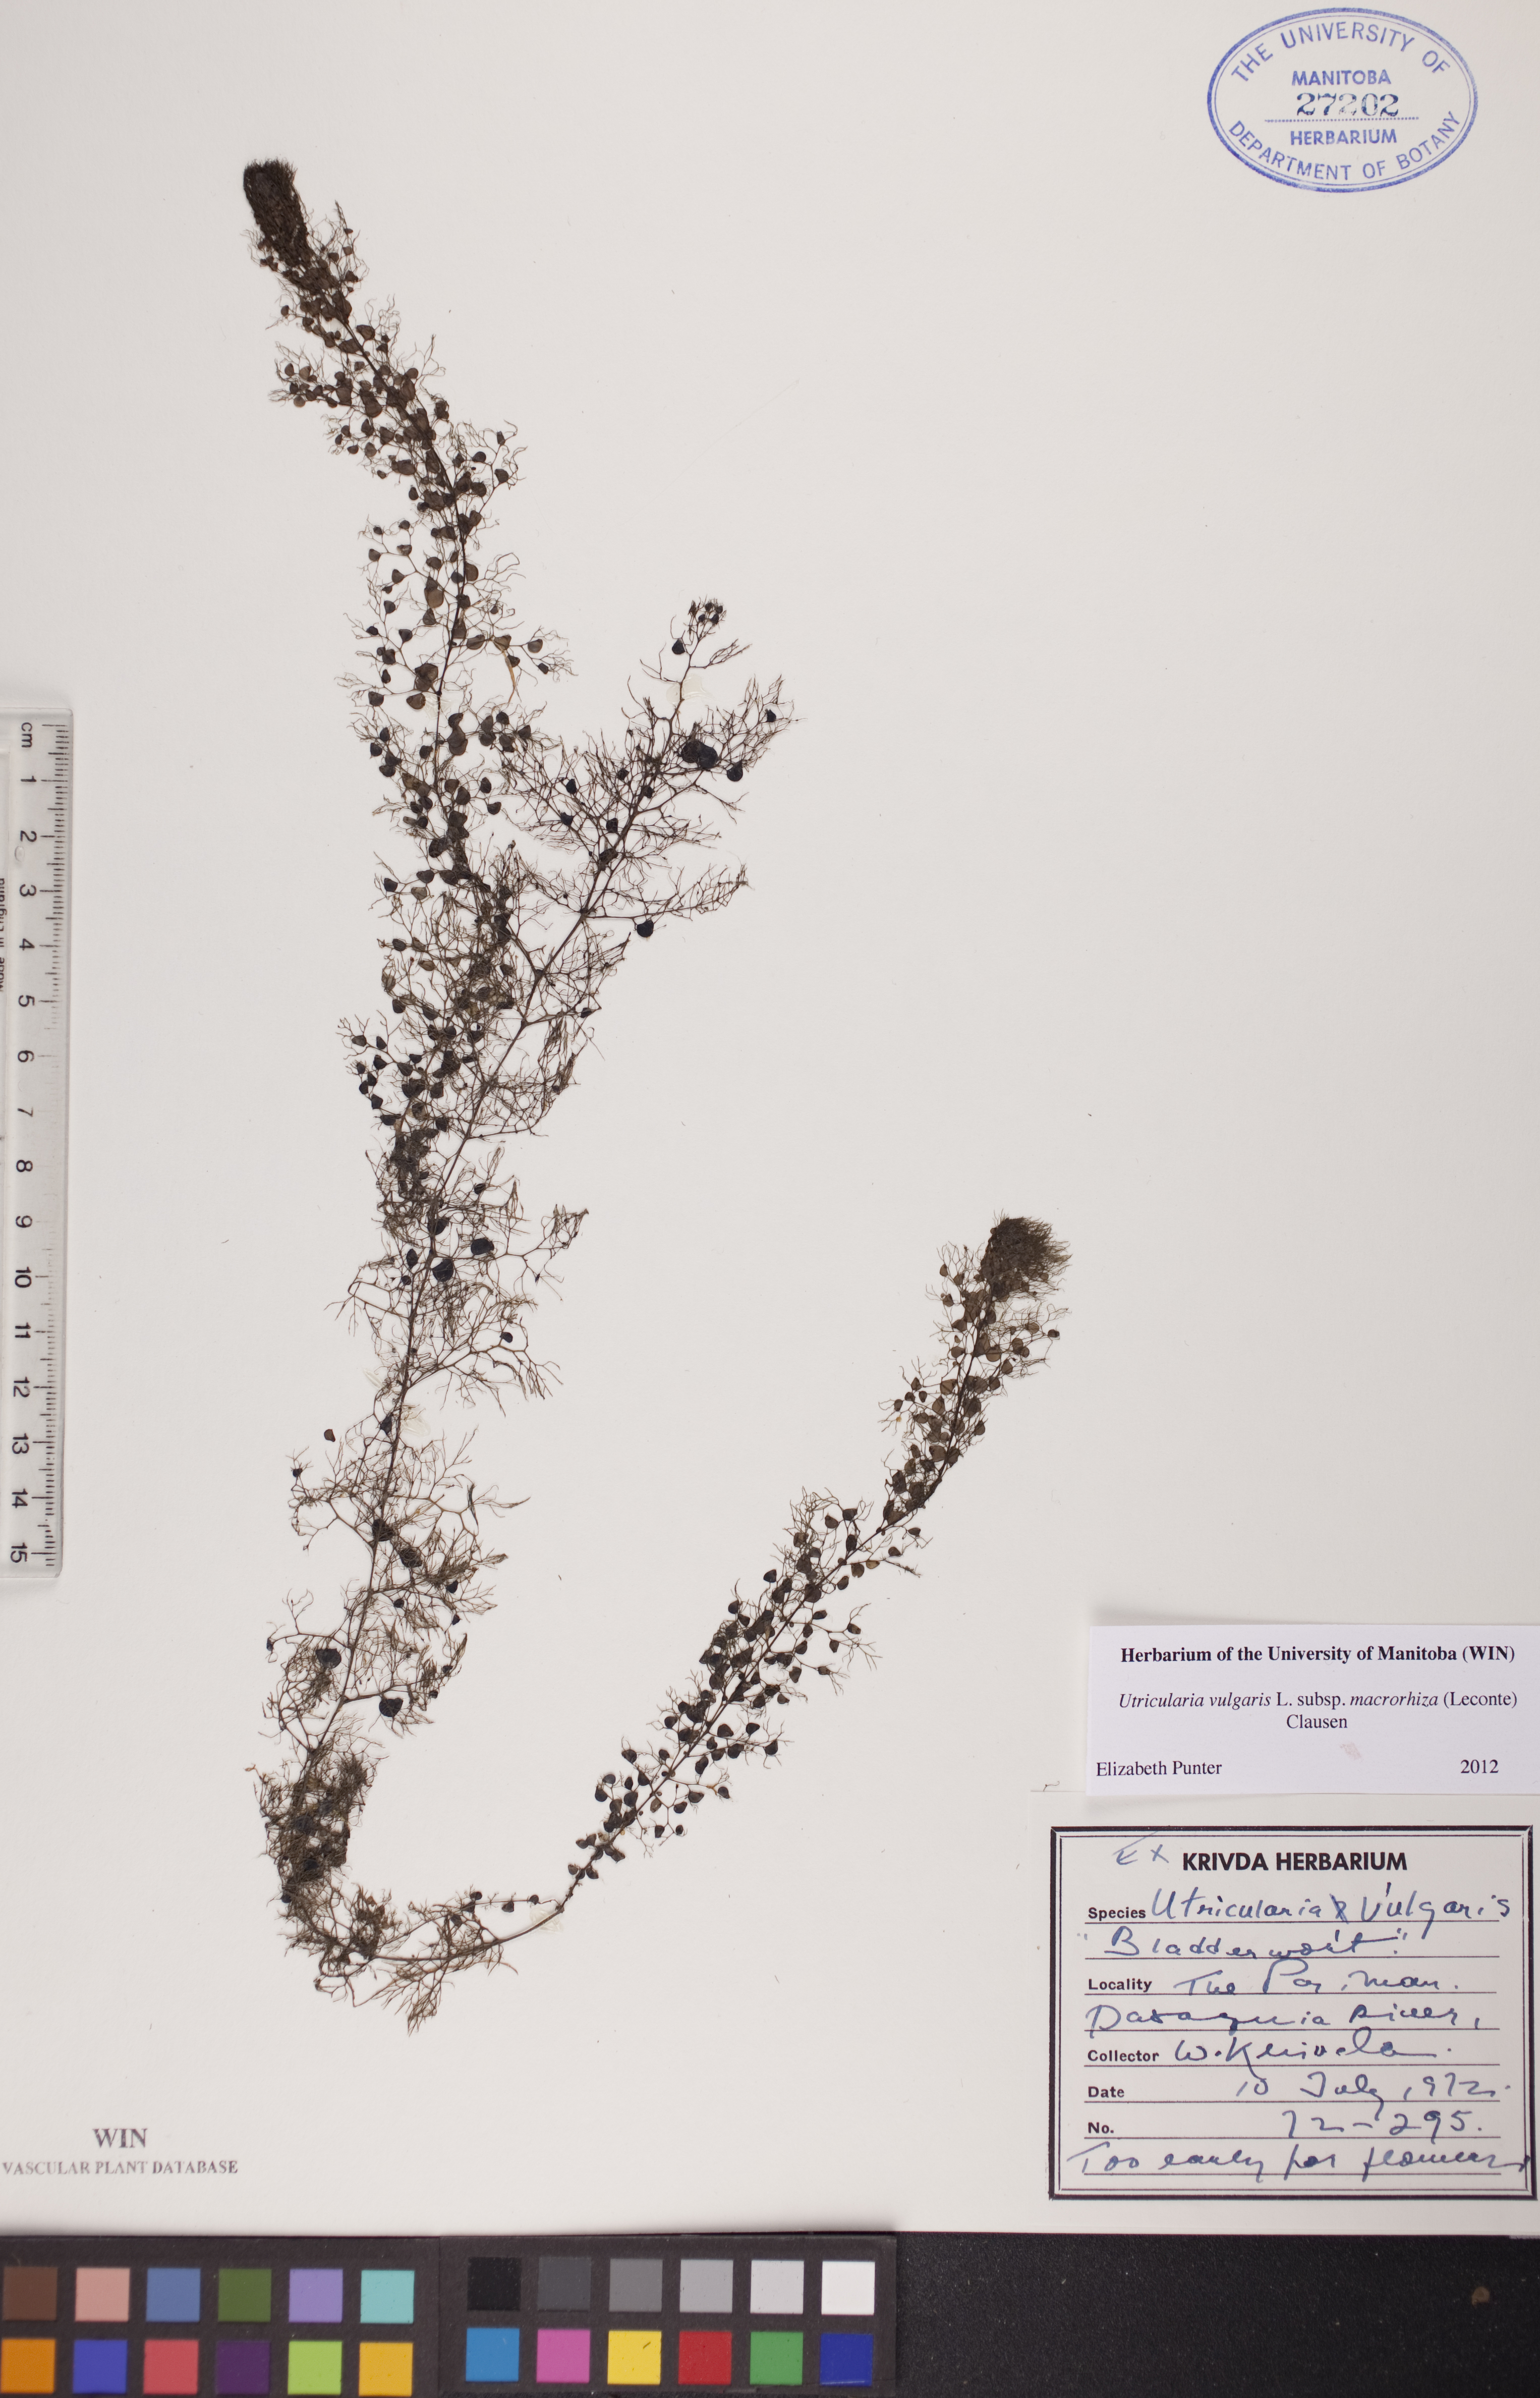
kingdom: Plantae
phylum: Tracheophyta
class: Magnoliopsida
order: Lamiales
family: Lentibulariaceae
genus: Utricularia
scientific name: Utricularia macrorhiza
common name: Common bladderwort
